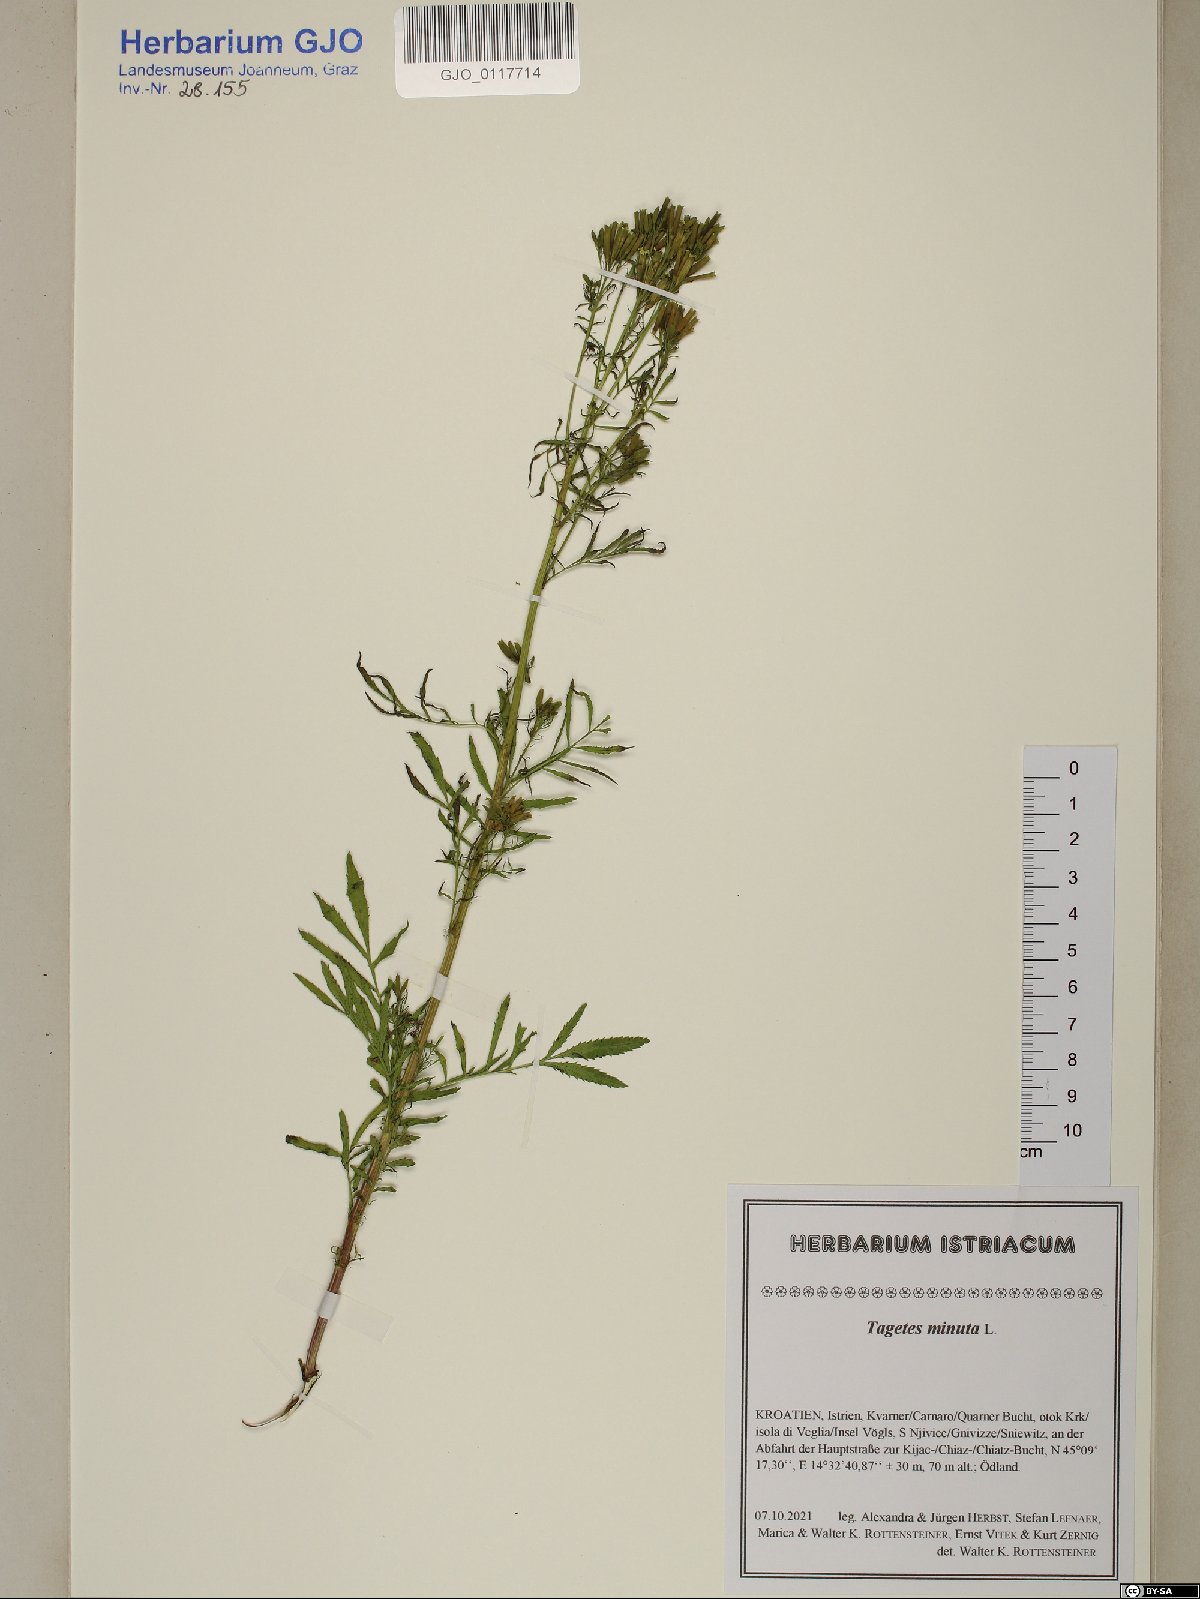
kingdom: Plantae
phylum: Tracheophyta
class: Magnoliopsida
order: Asterales
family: Asteraceae
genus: Tagetes
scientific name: Tagetes minuta
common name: Muster john henry
